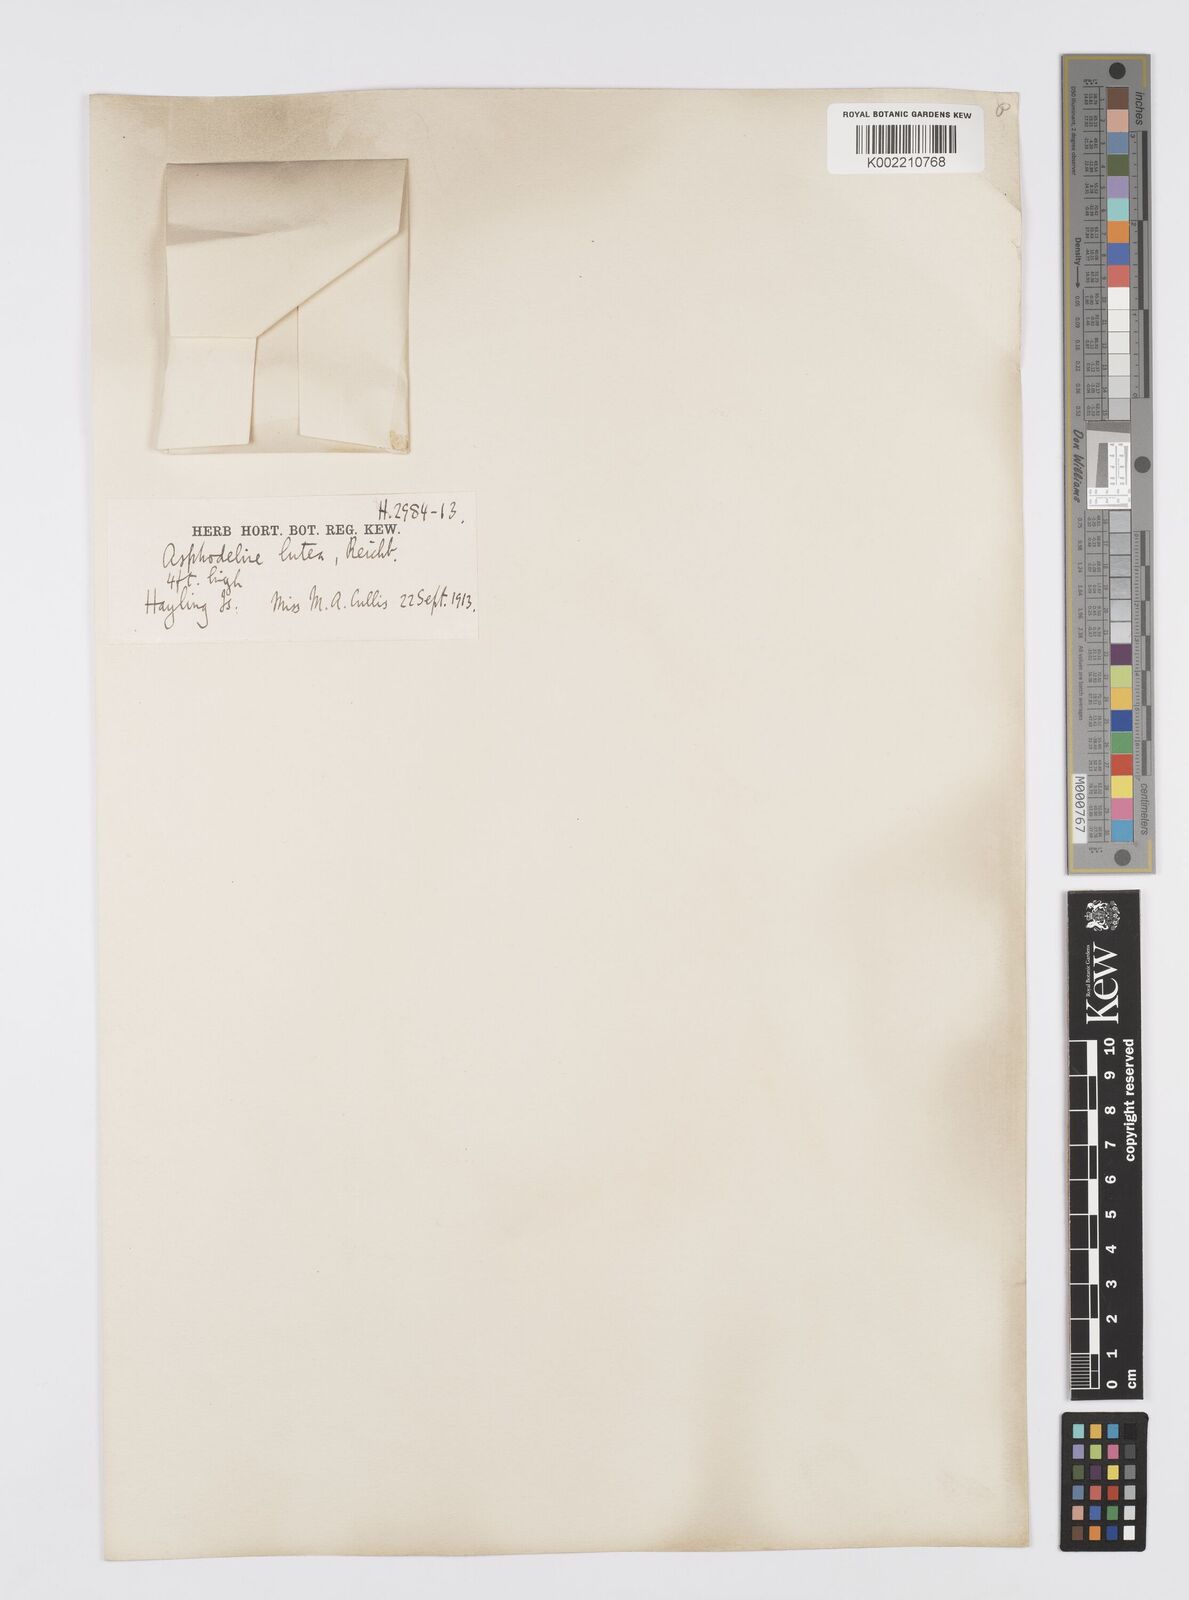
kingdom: Plantae
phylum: Tracheophyta
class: Liliopsida
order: Asparagales
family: Asphodelaceae
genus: Asphodeline
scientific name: Asphodeline lutea
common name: Yellow asphodel
